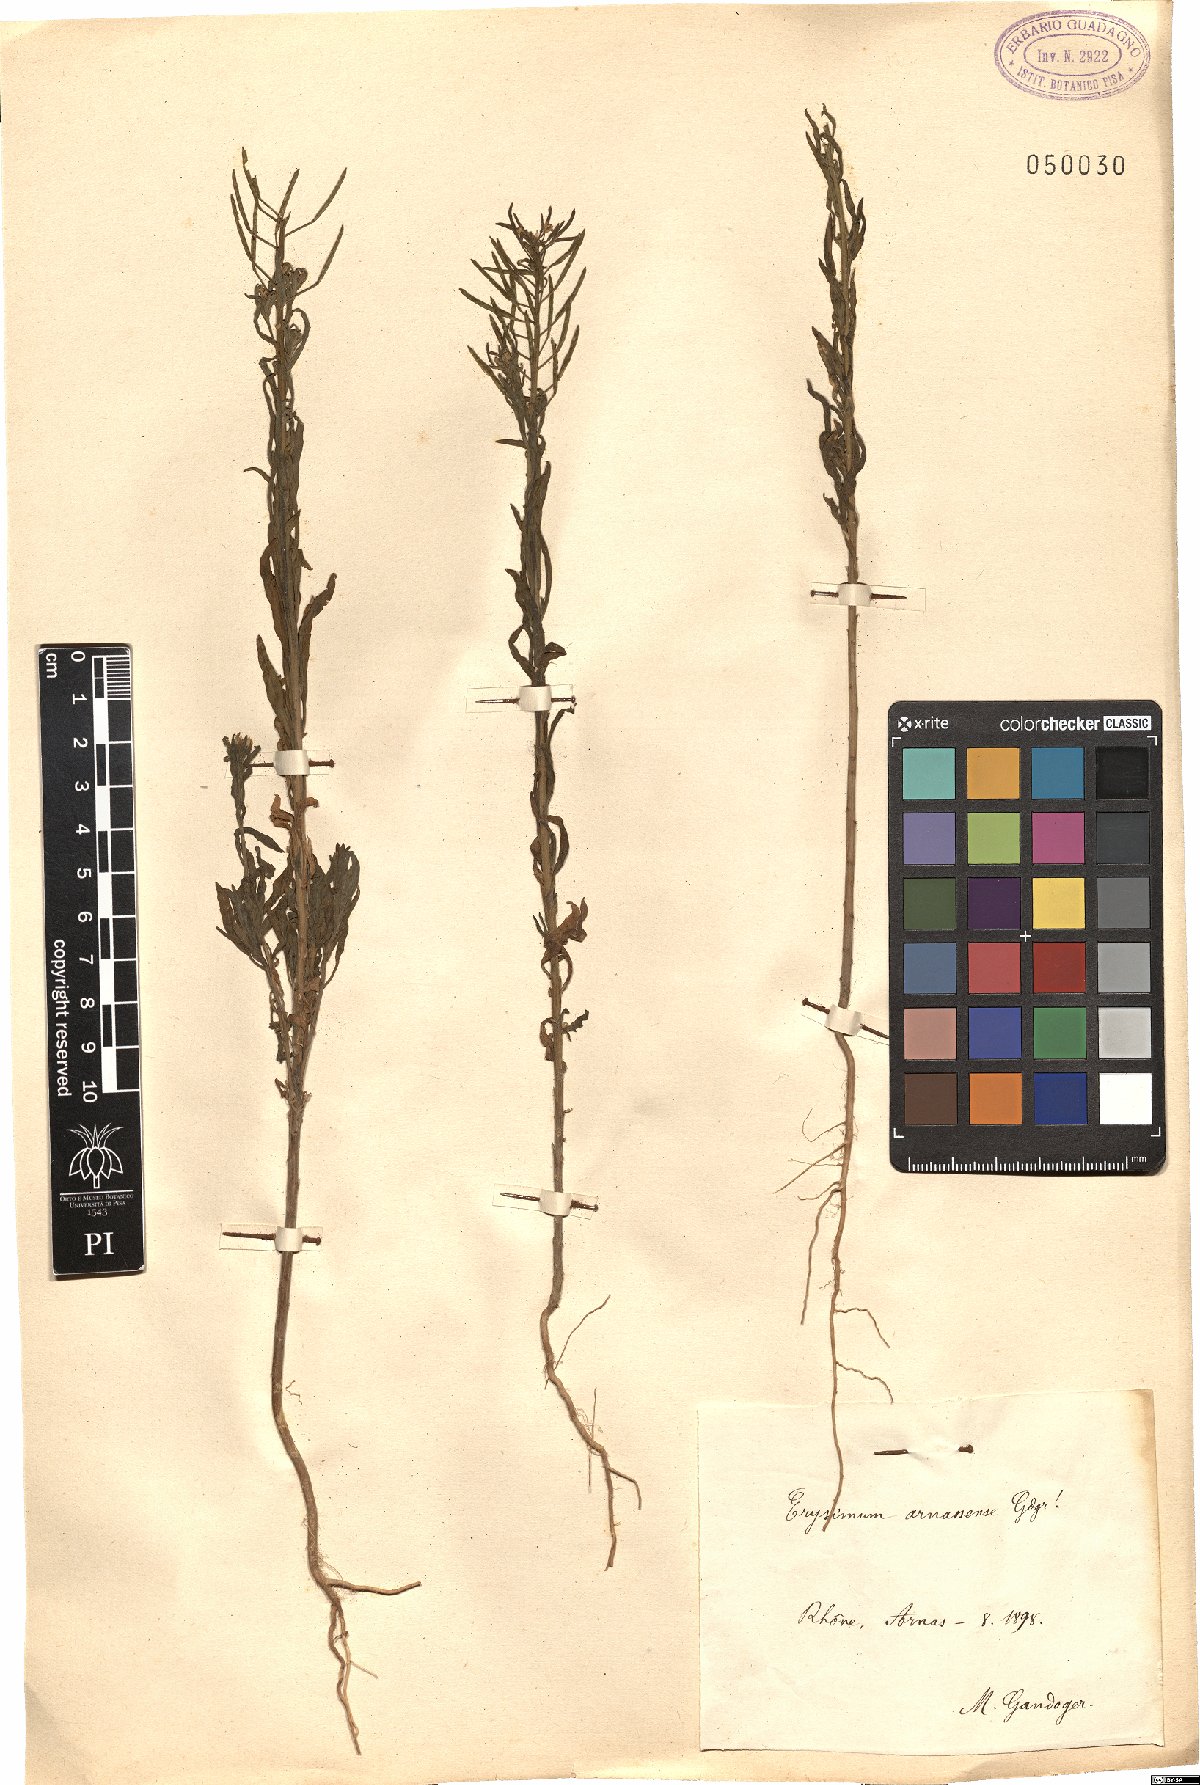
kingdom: Plantae
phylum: Tracheophyta
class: Magnoliopsida
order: Brassicales
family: Brassicaceae
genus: Erysimum
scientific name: Erysimum
